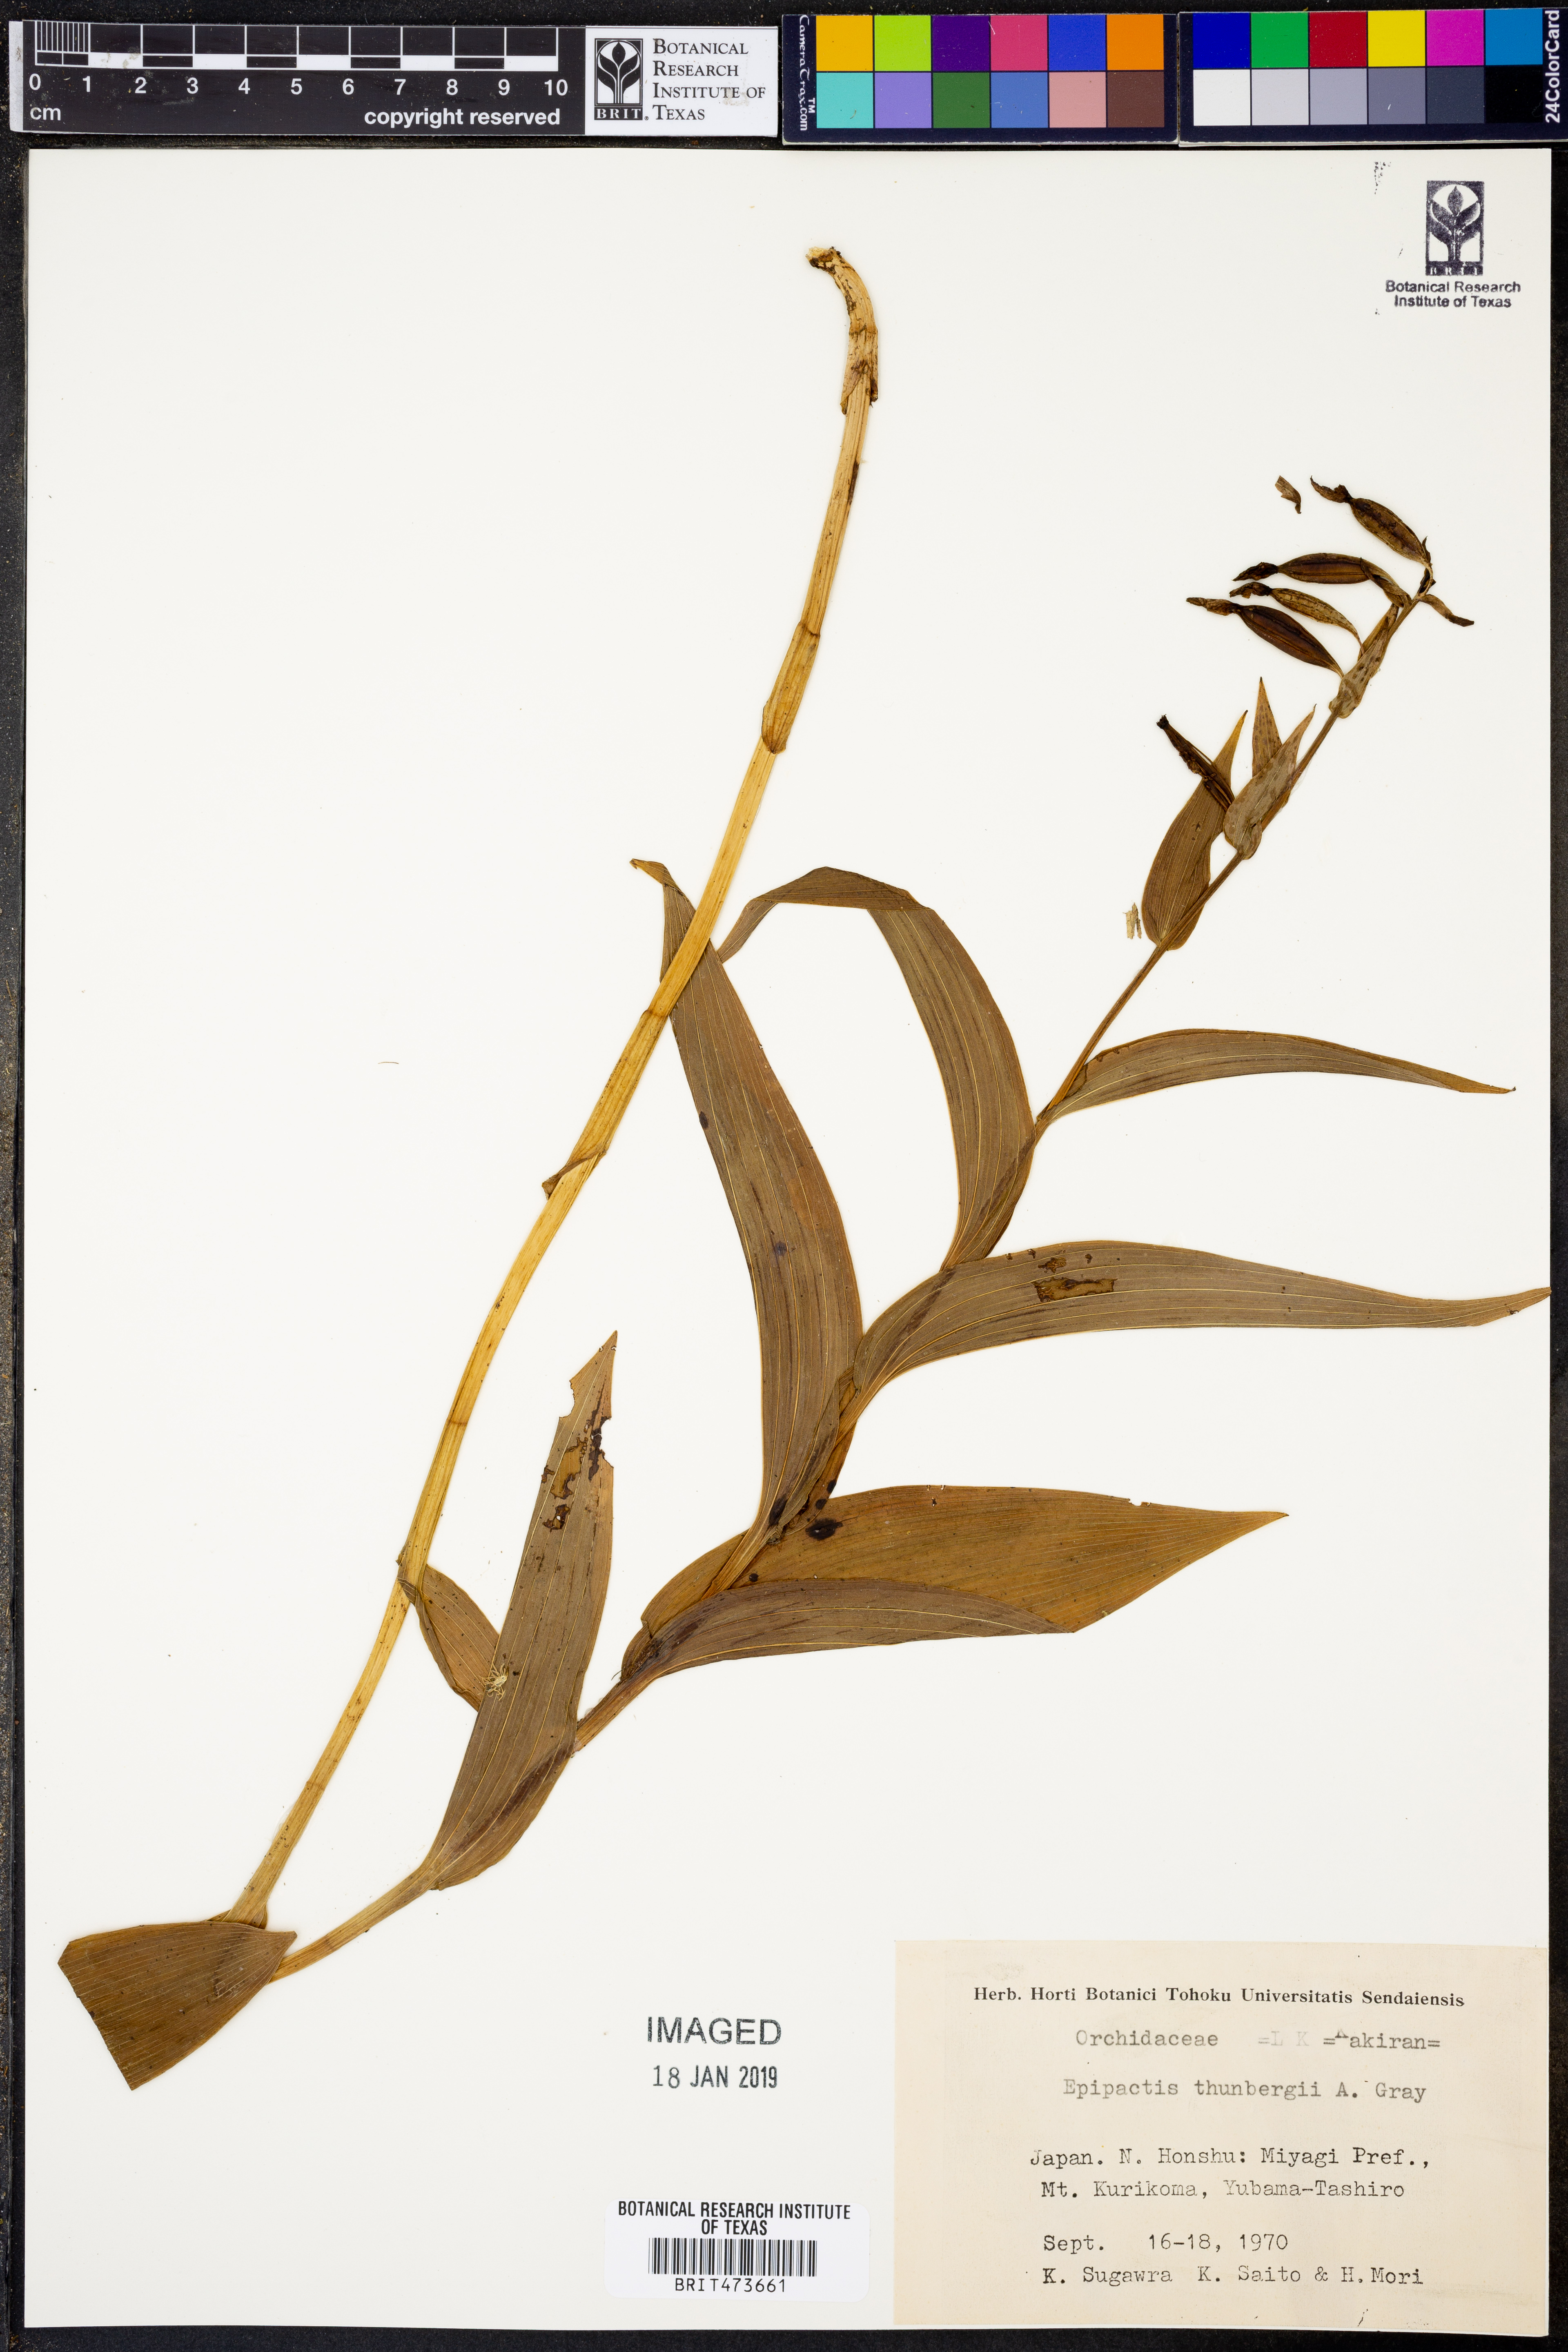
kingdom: Plantae
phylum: Tracheophyta
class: Liliopsida
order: Asparagales
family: Orchidaceae
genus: Epipactis
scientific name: Epipactis thunbergii
